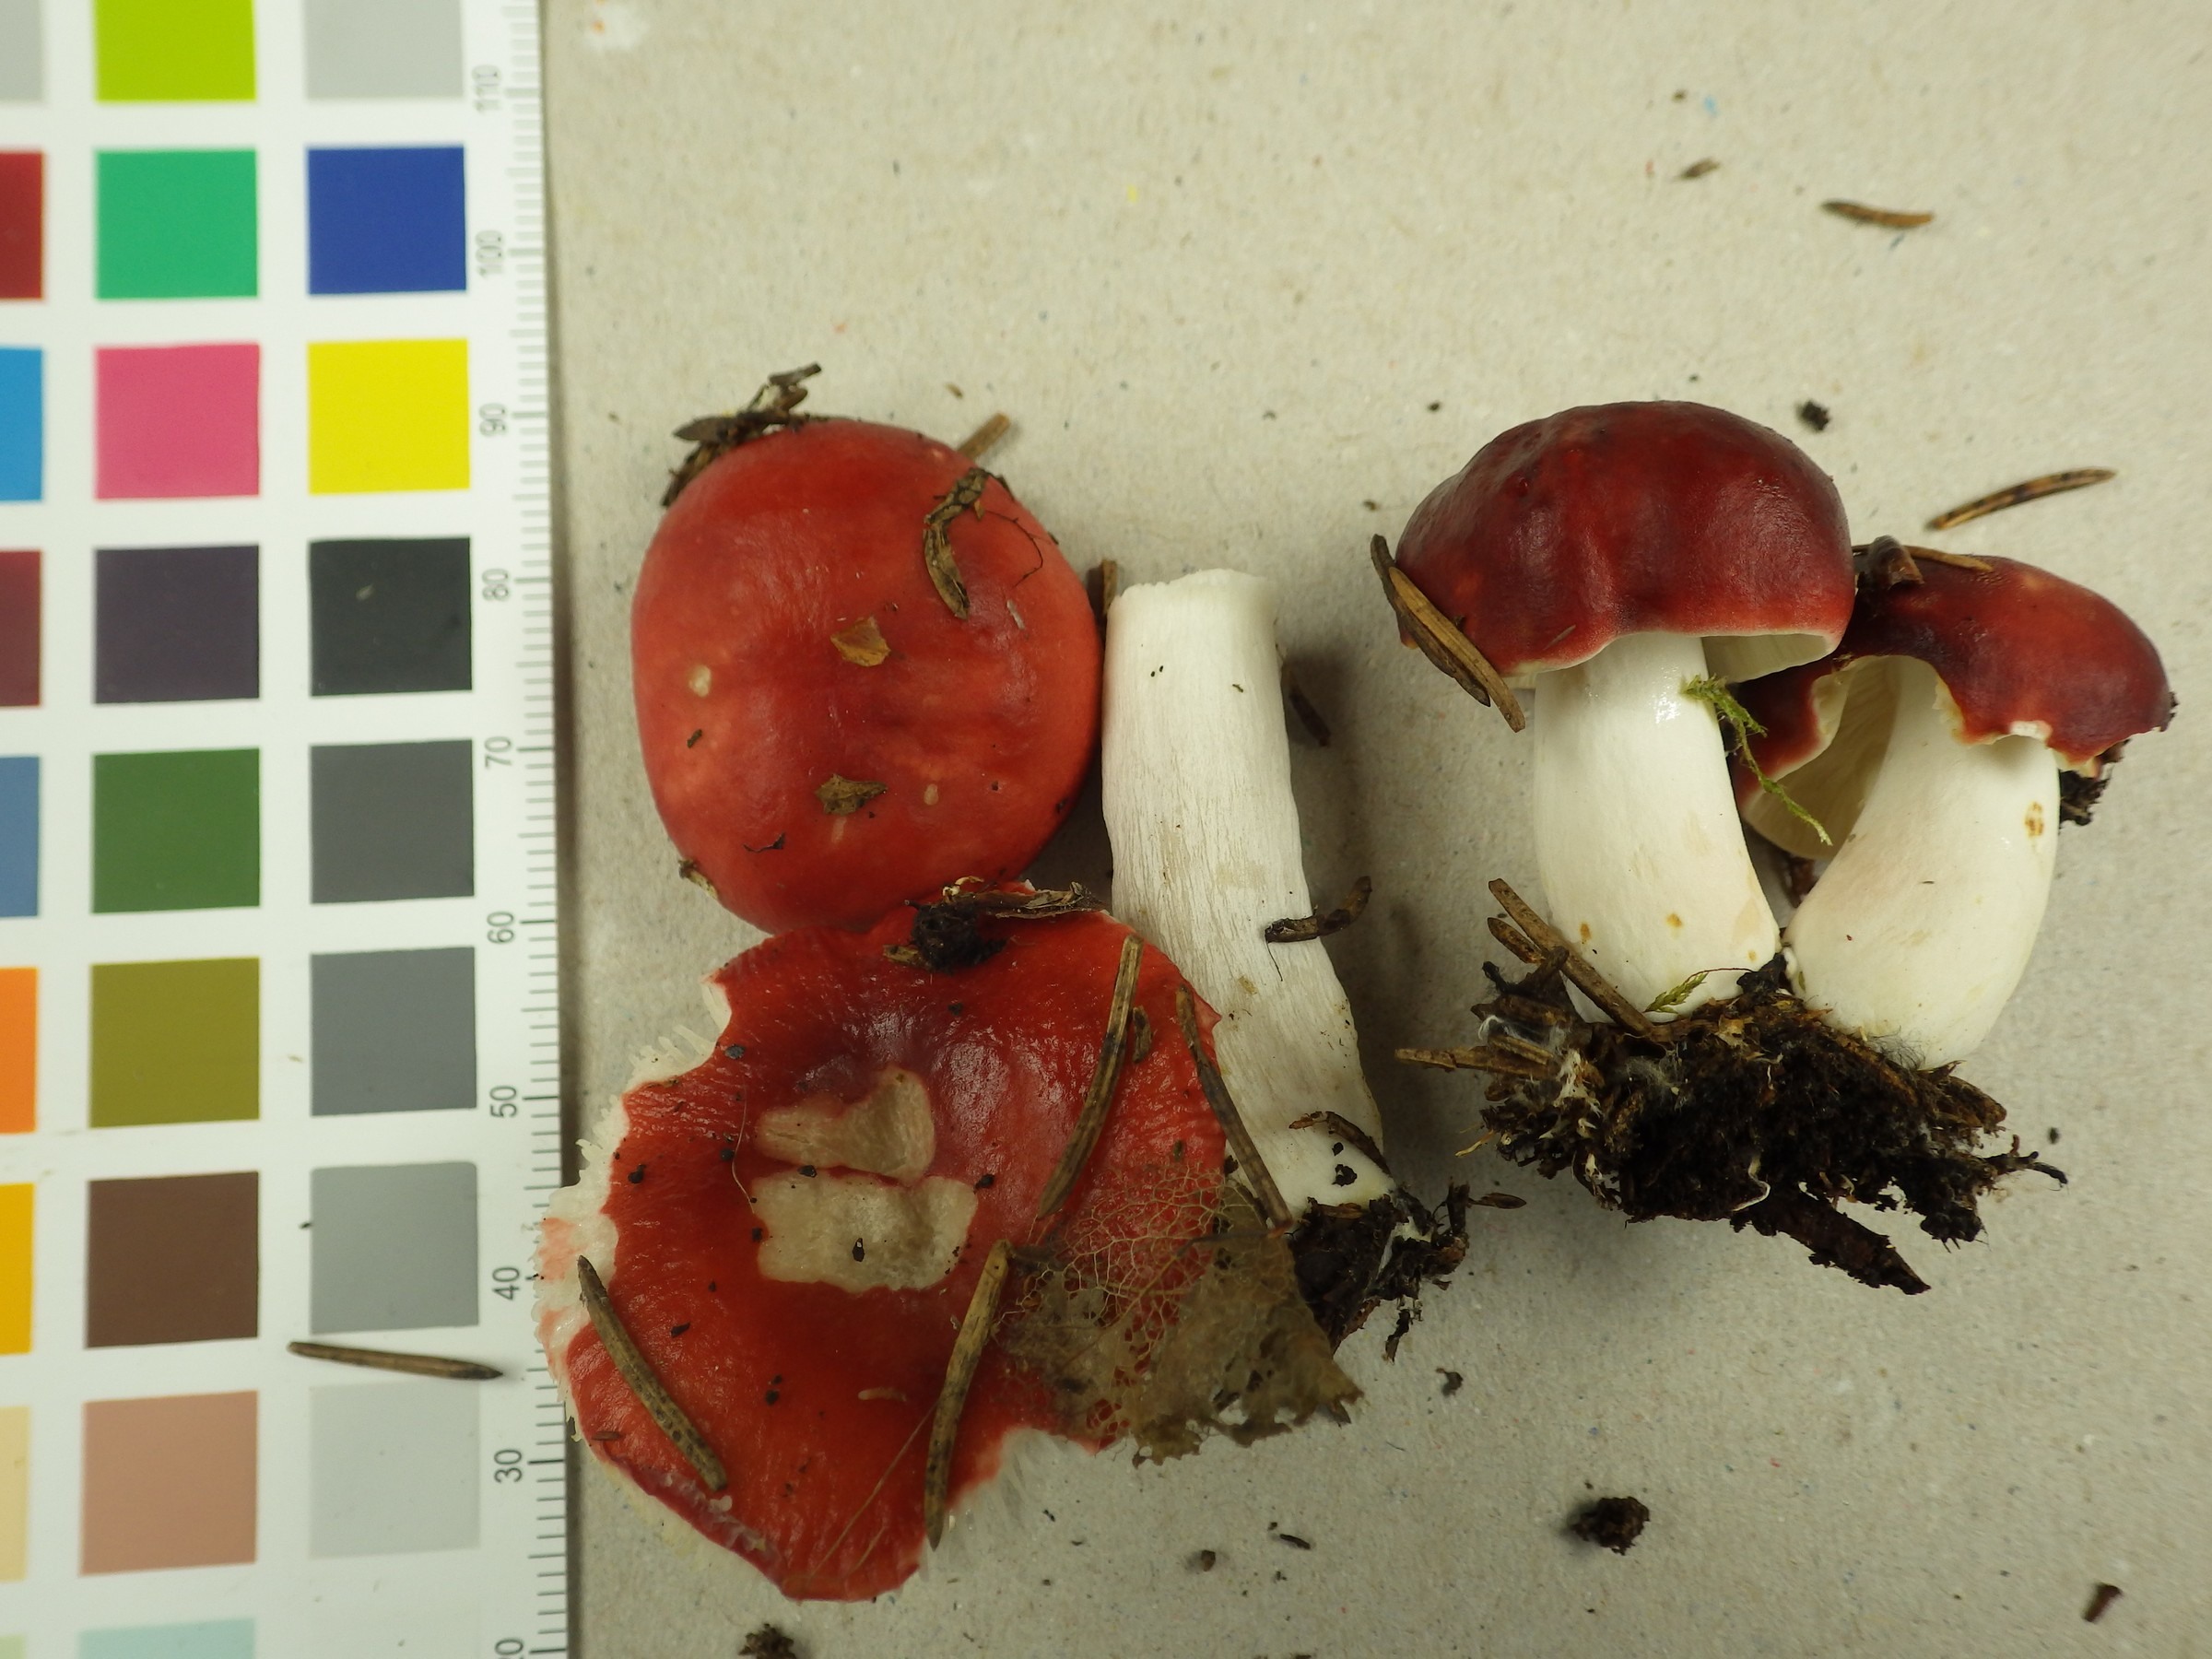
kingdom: Fungi
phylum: Basidiomycota
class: Agaricomycetes
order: Russulales
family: Russulaceae
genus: Russula
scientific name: Russula grisescens
